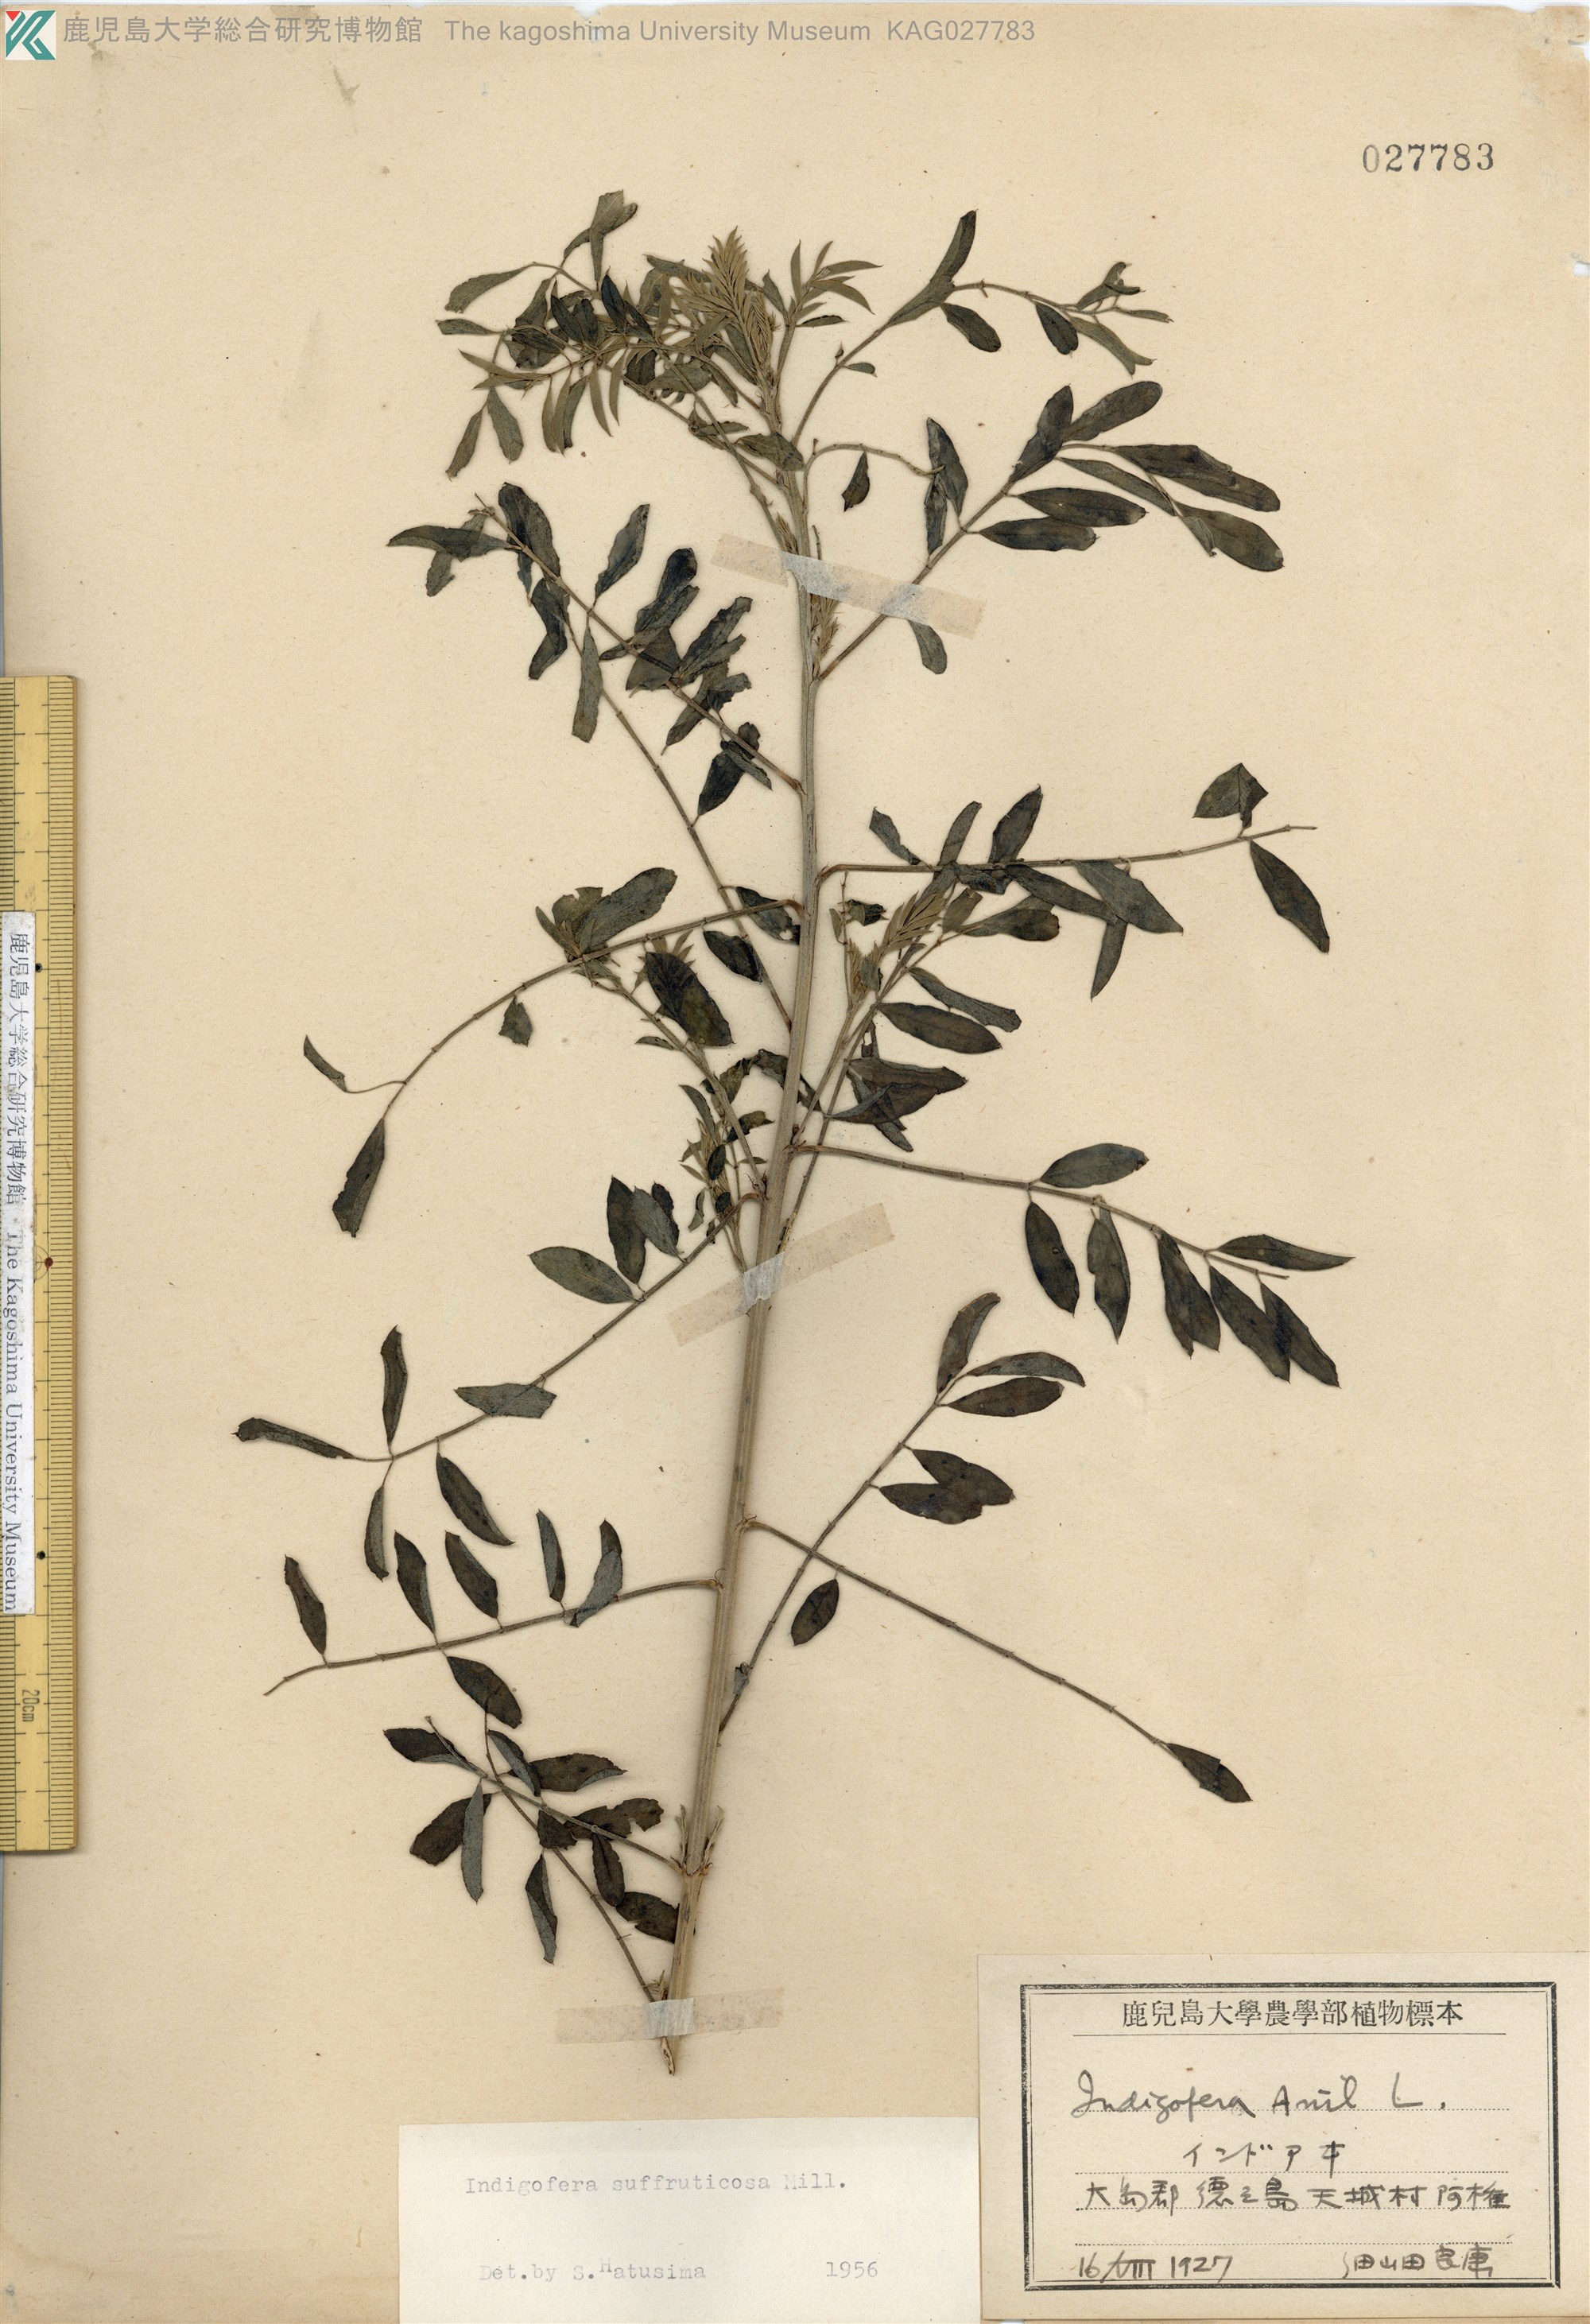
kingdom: Plantae
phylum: Tracheophyta
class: Magnoliopsida
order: Fabales
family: Fabaceae
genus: Indigofera
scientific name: Indigofera suffruticosa
